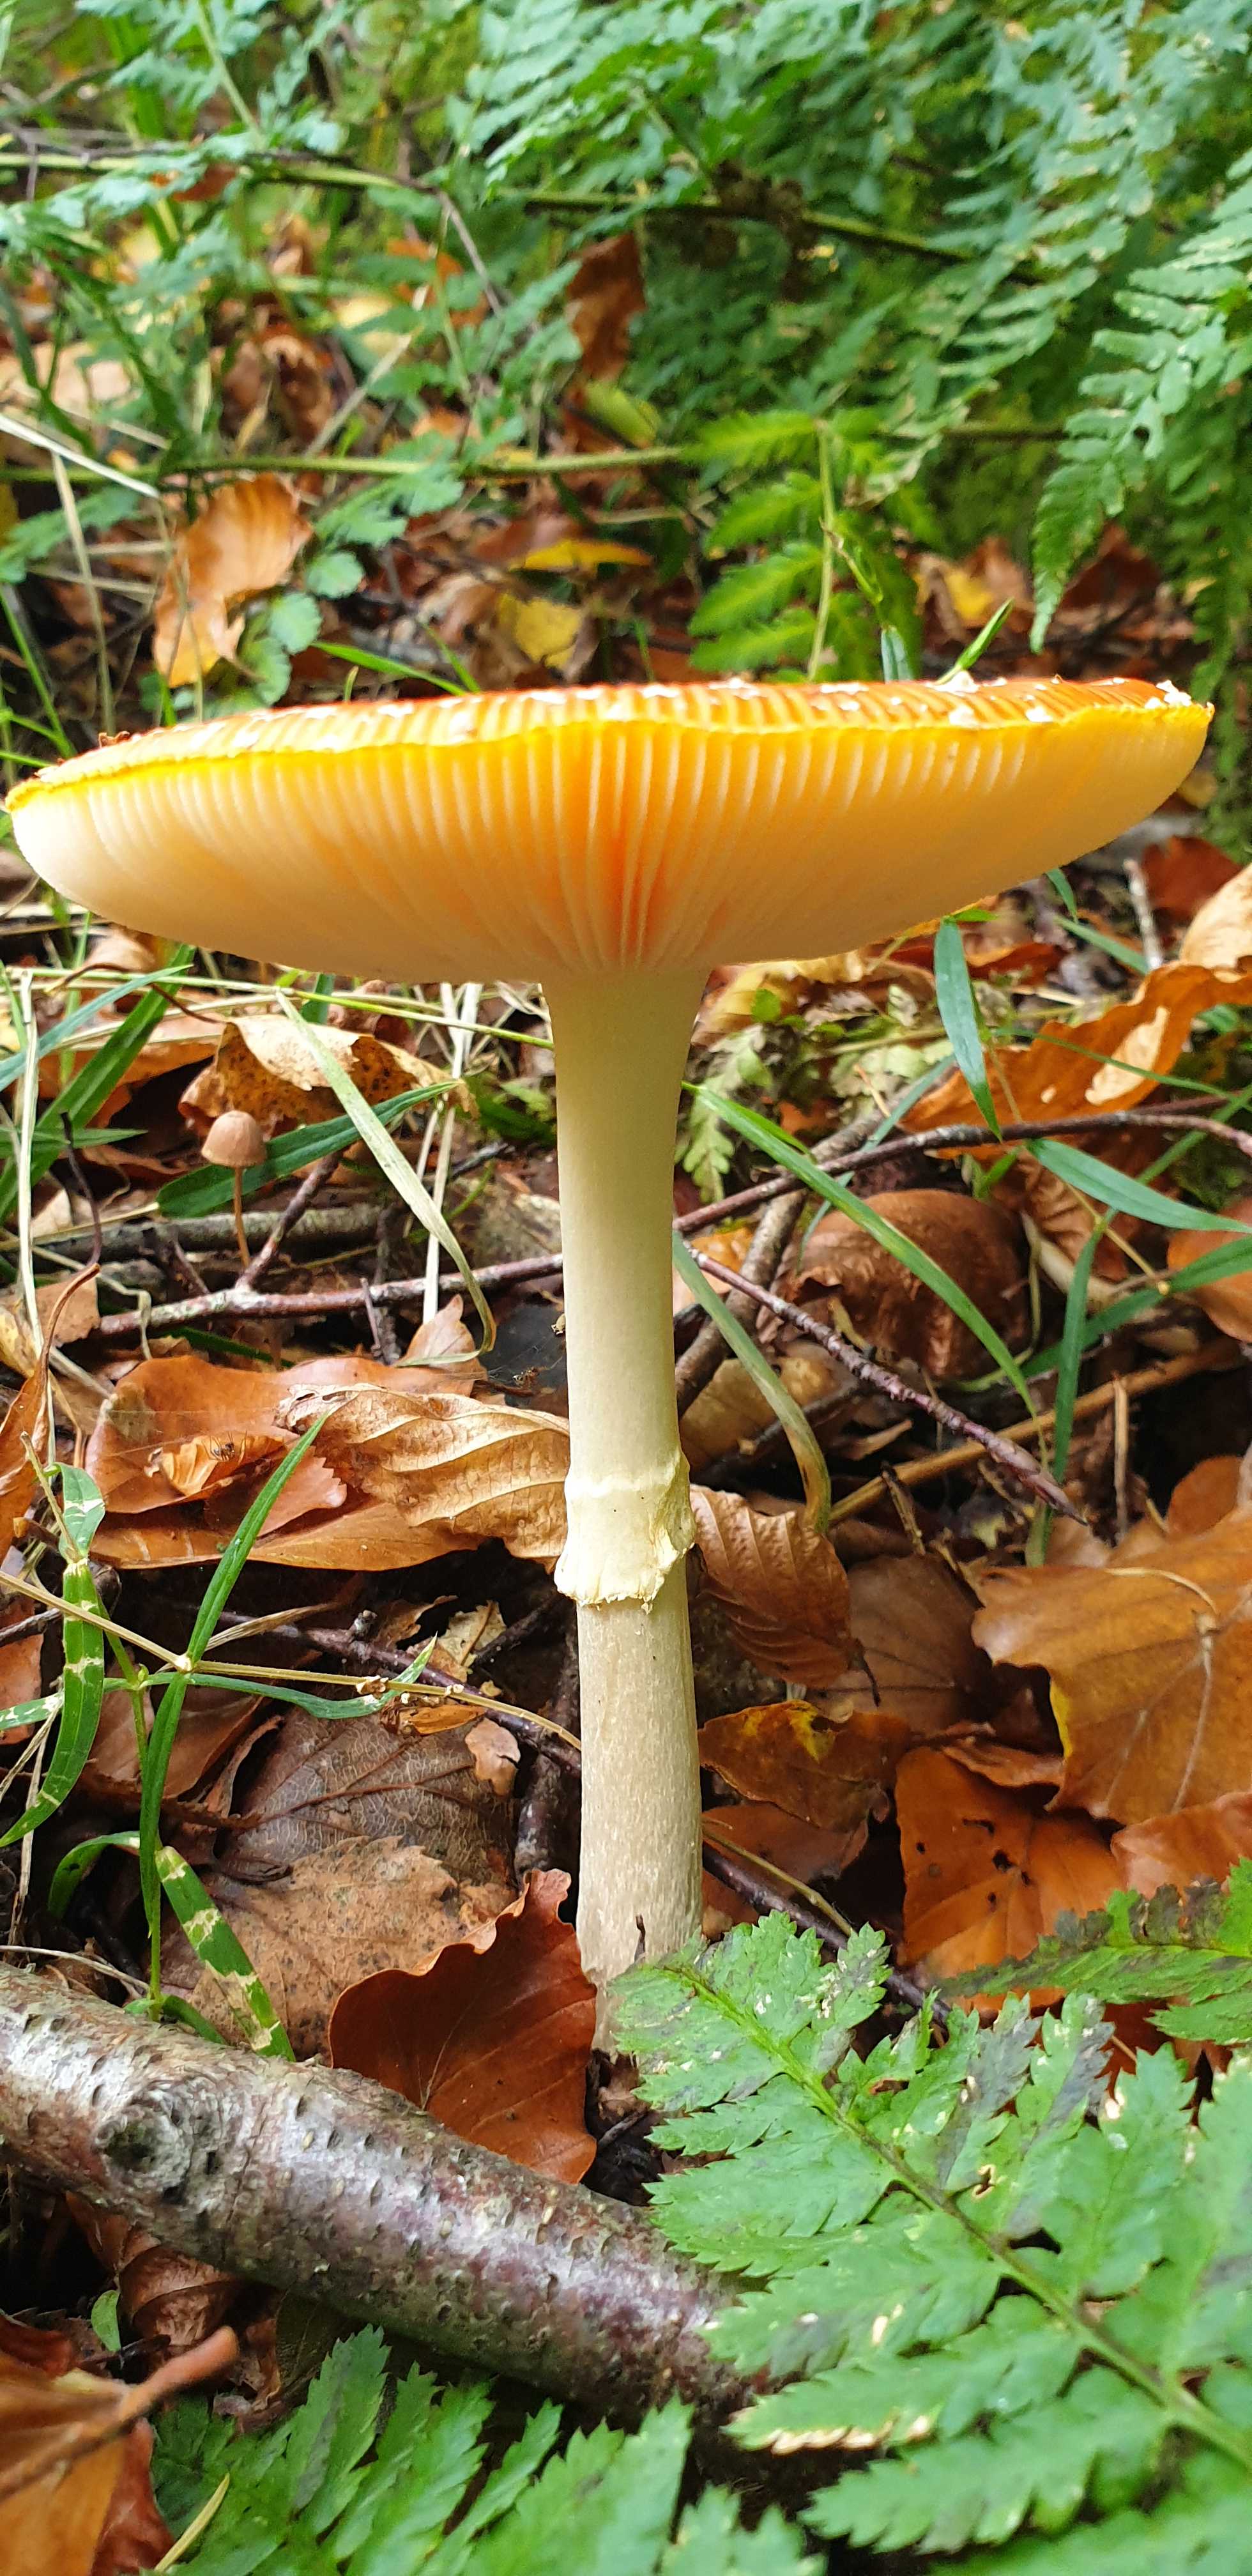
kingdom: Fungi
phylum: Basidiomycota
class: Agaricomycetes
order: Agaricales
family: Amanitaceae
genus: Amanita
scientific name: Amanita muscaria
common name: rød fluesvamp
